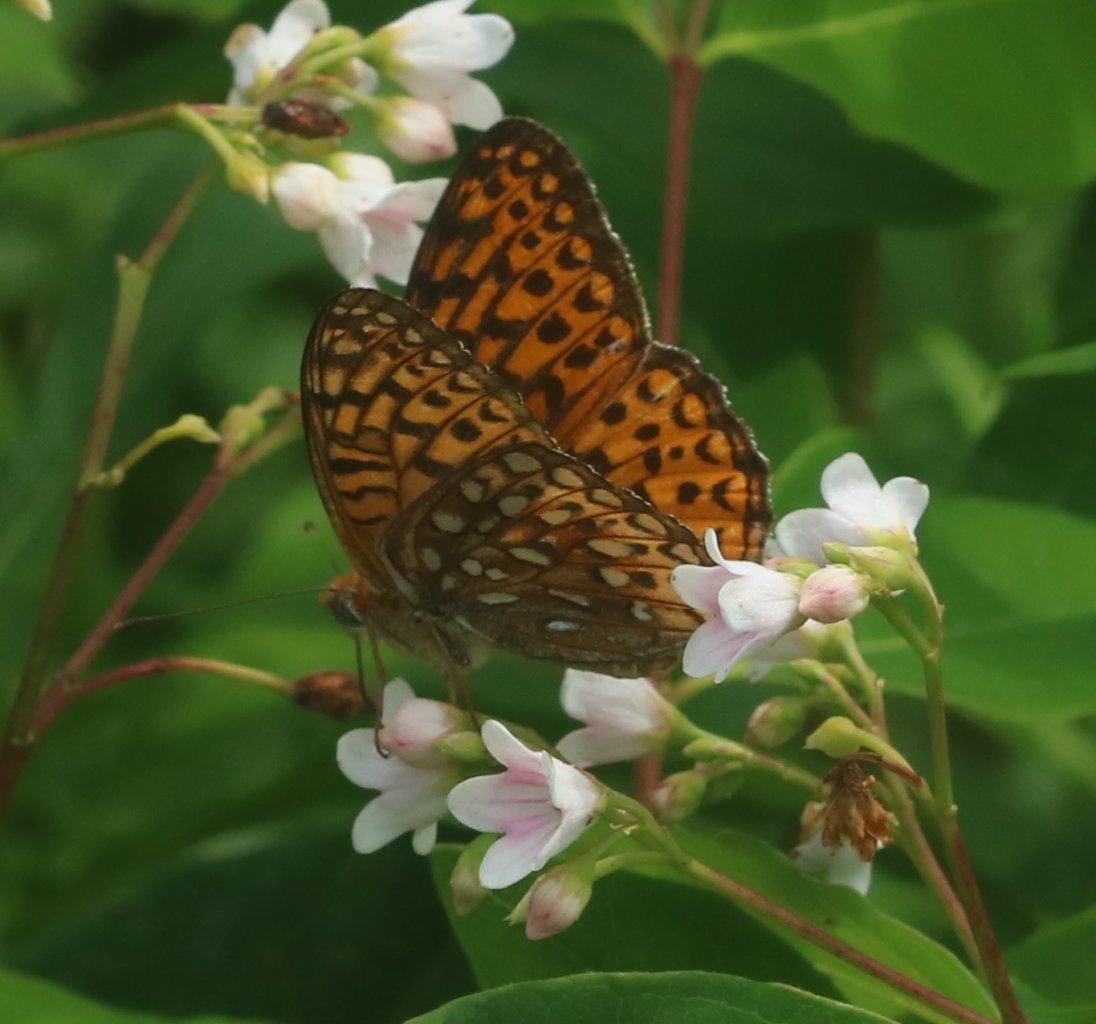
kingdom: Animalia
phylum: Arthropoda
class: Insecta
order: Lepidoptera
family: Nymphalidae
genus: Speyeria
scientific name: Speyeria atlantis
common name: Atlantis Fritillary
